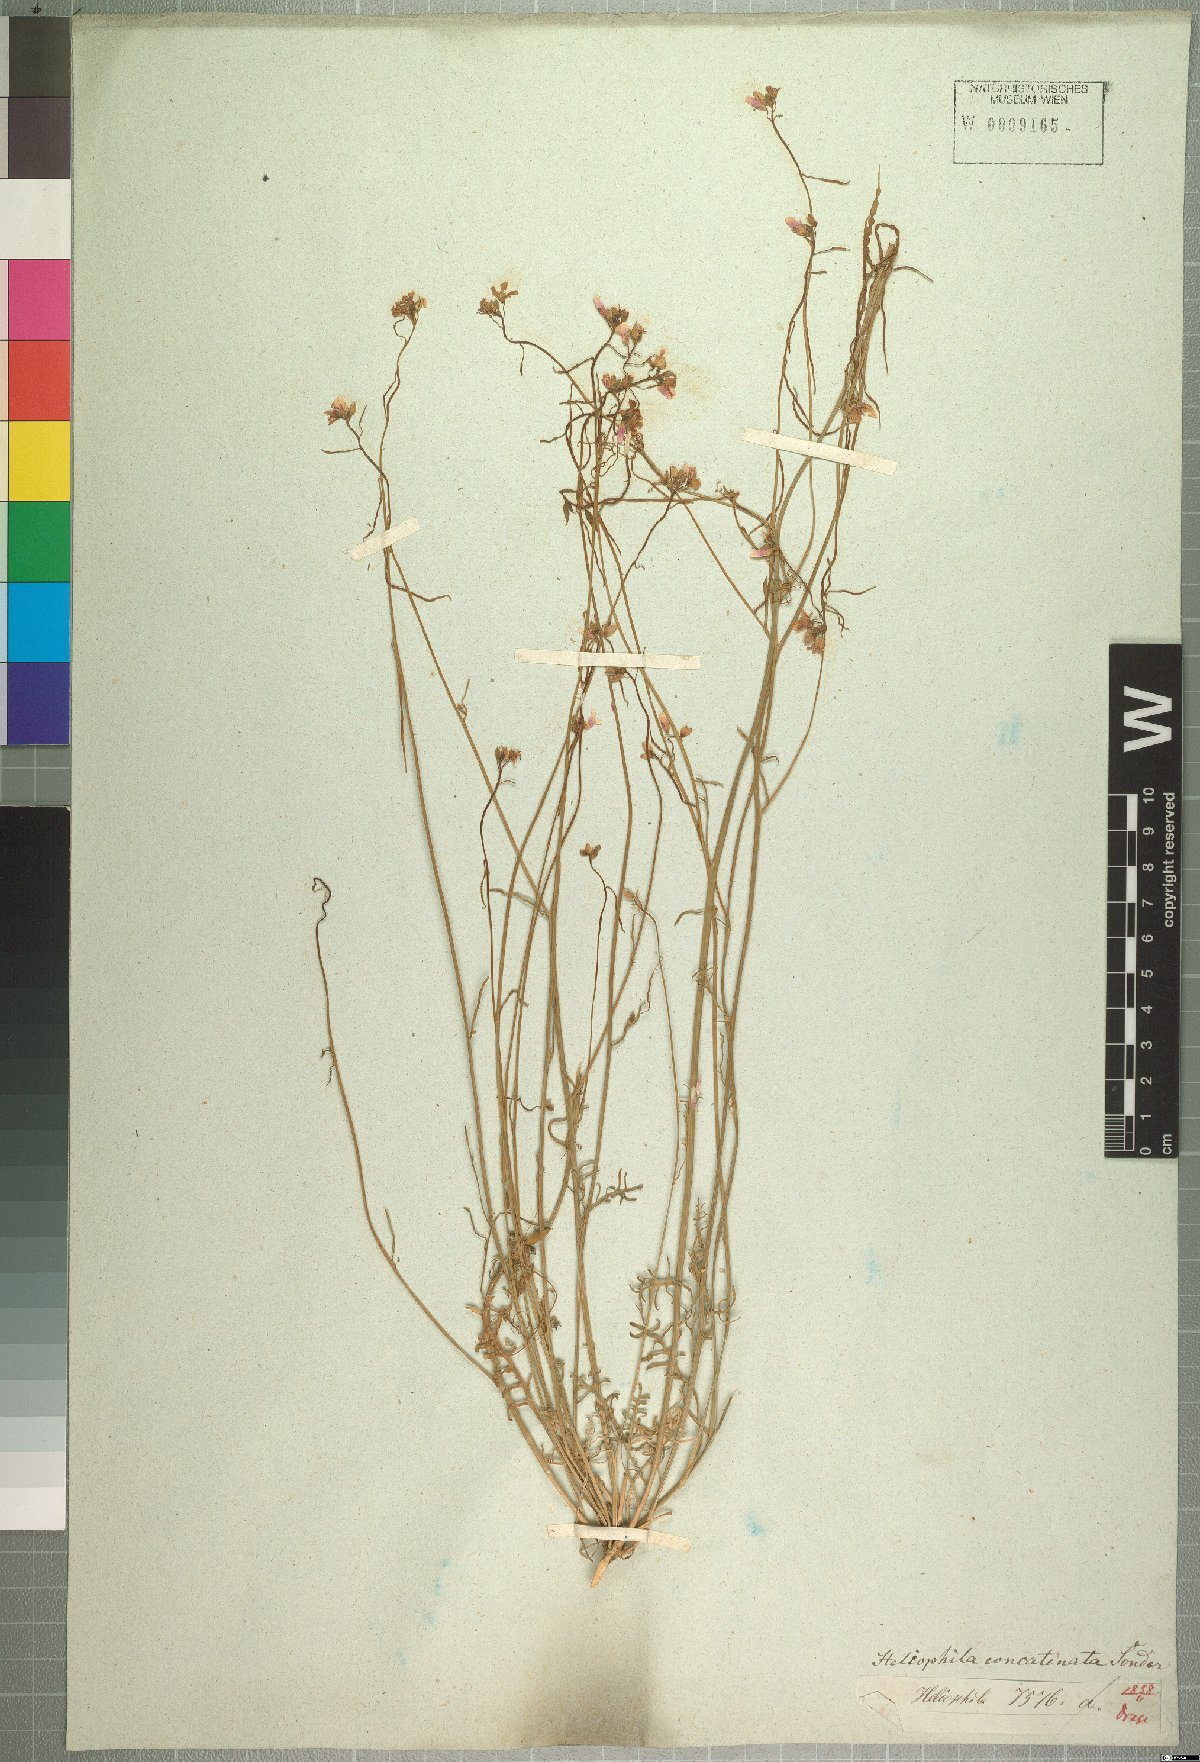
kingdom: Plantae
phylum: Tracheophyta
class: Magnoliopsida
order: Brassicales
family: Brassicaceae
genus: Heliophila
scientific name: Heliophila concatenata
